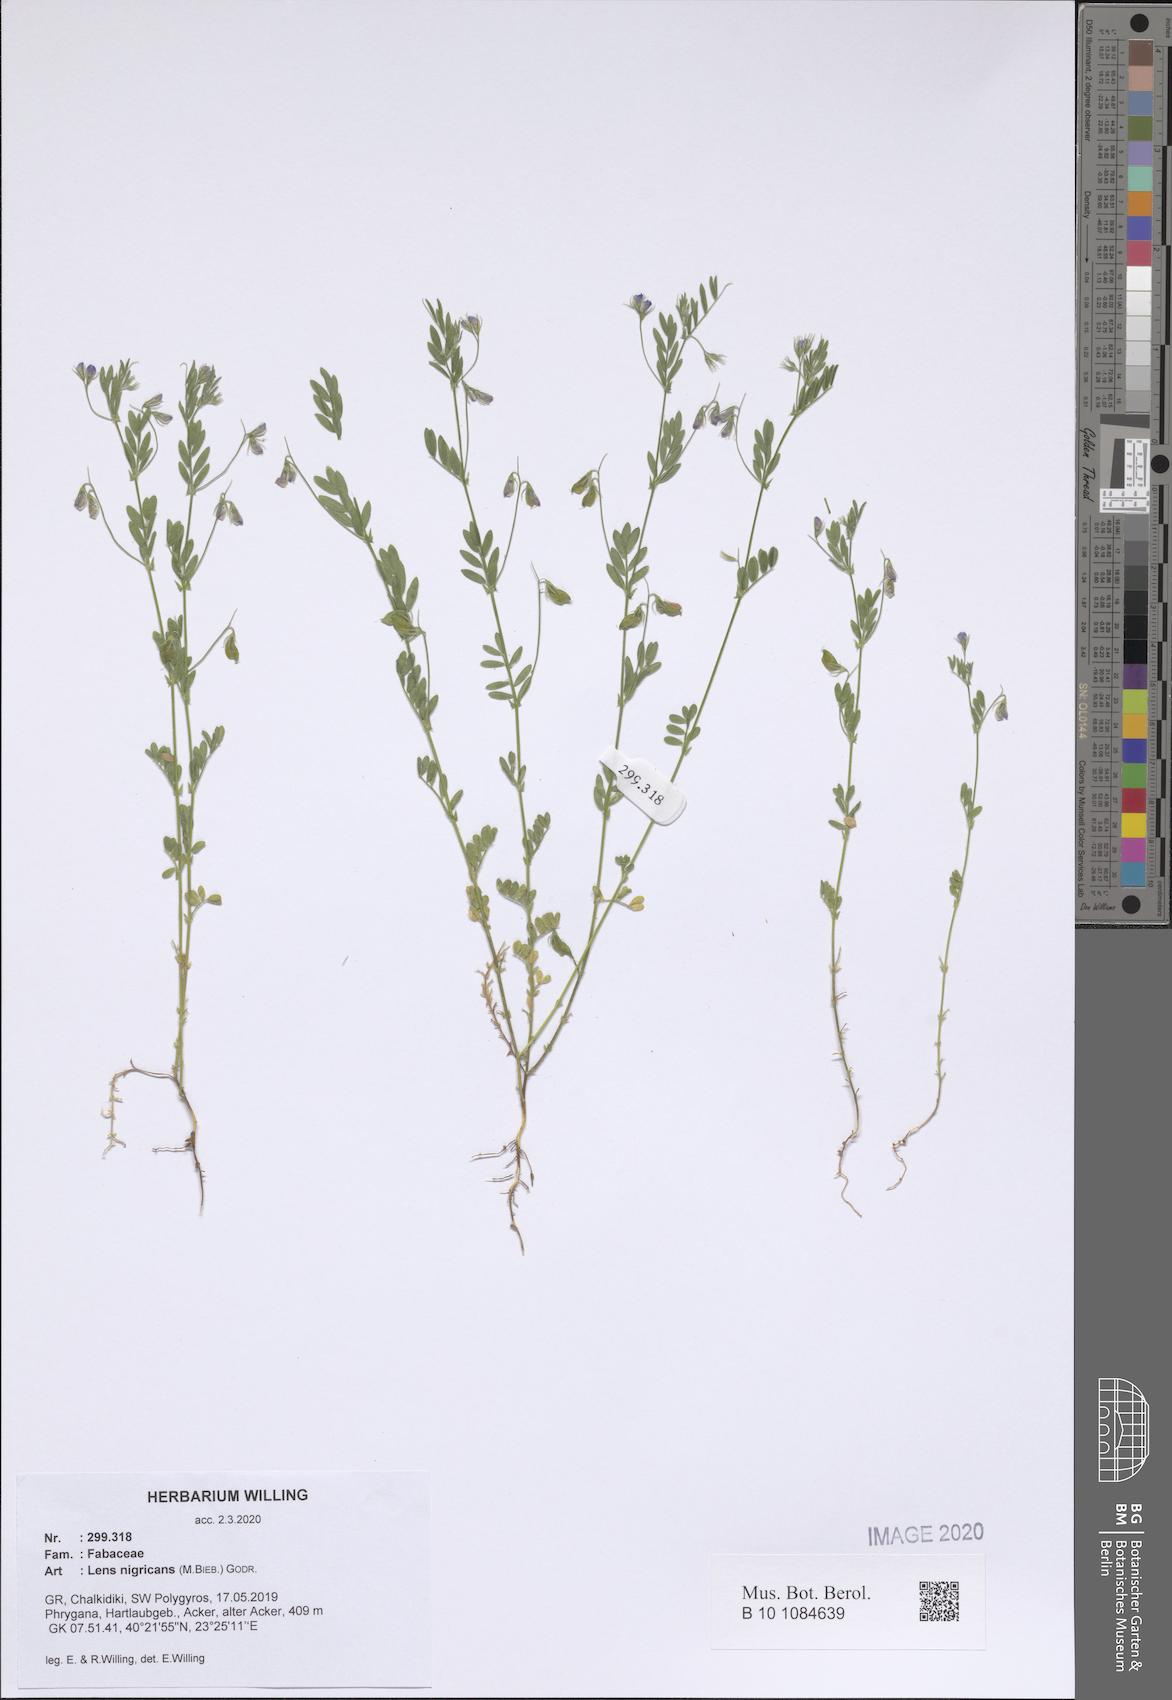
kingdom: Plantae
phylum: Tracheophyta
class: Magnoliopsida
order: Fabales
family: Fabaceae
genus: Vicia
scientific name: Vicia lentoides
